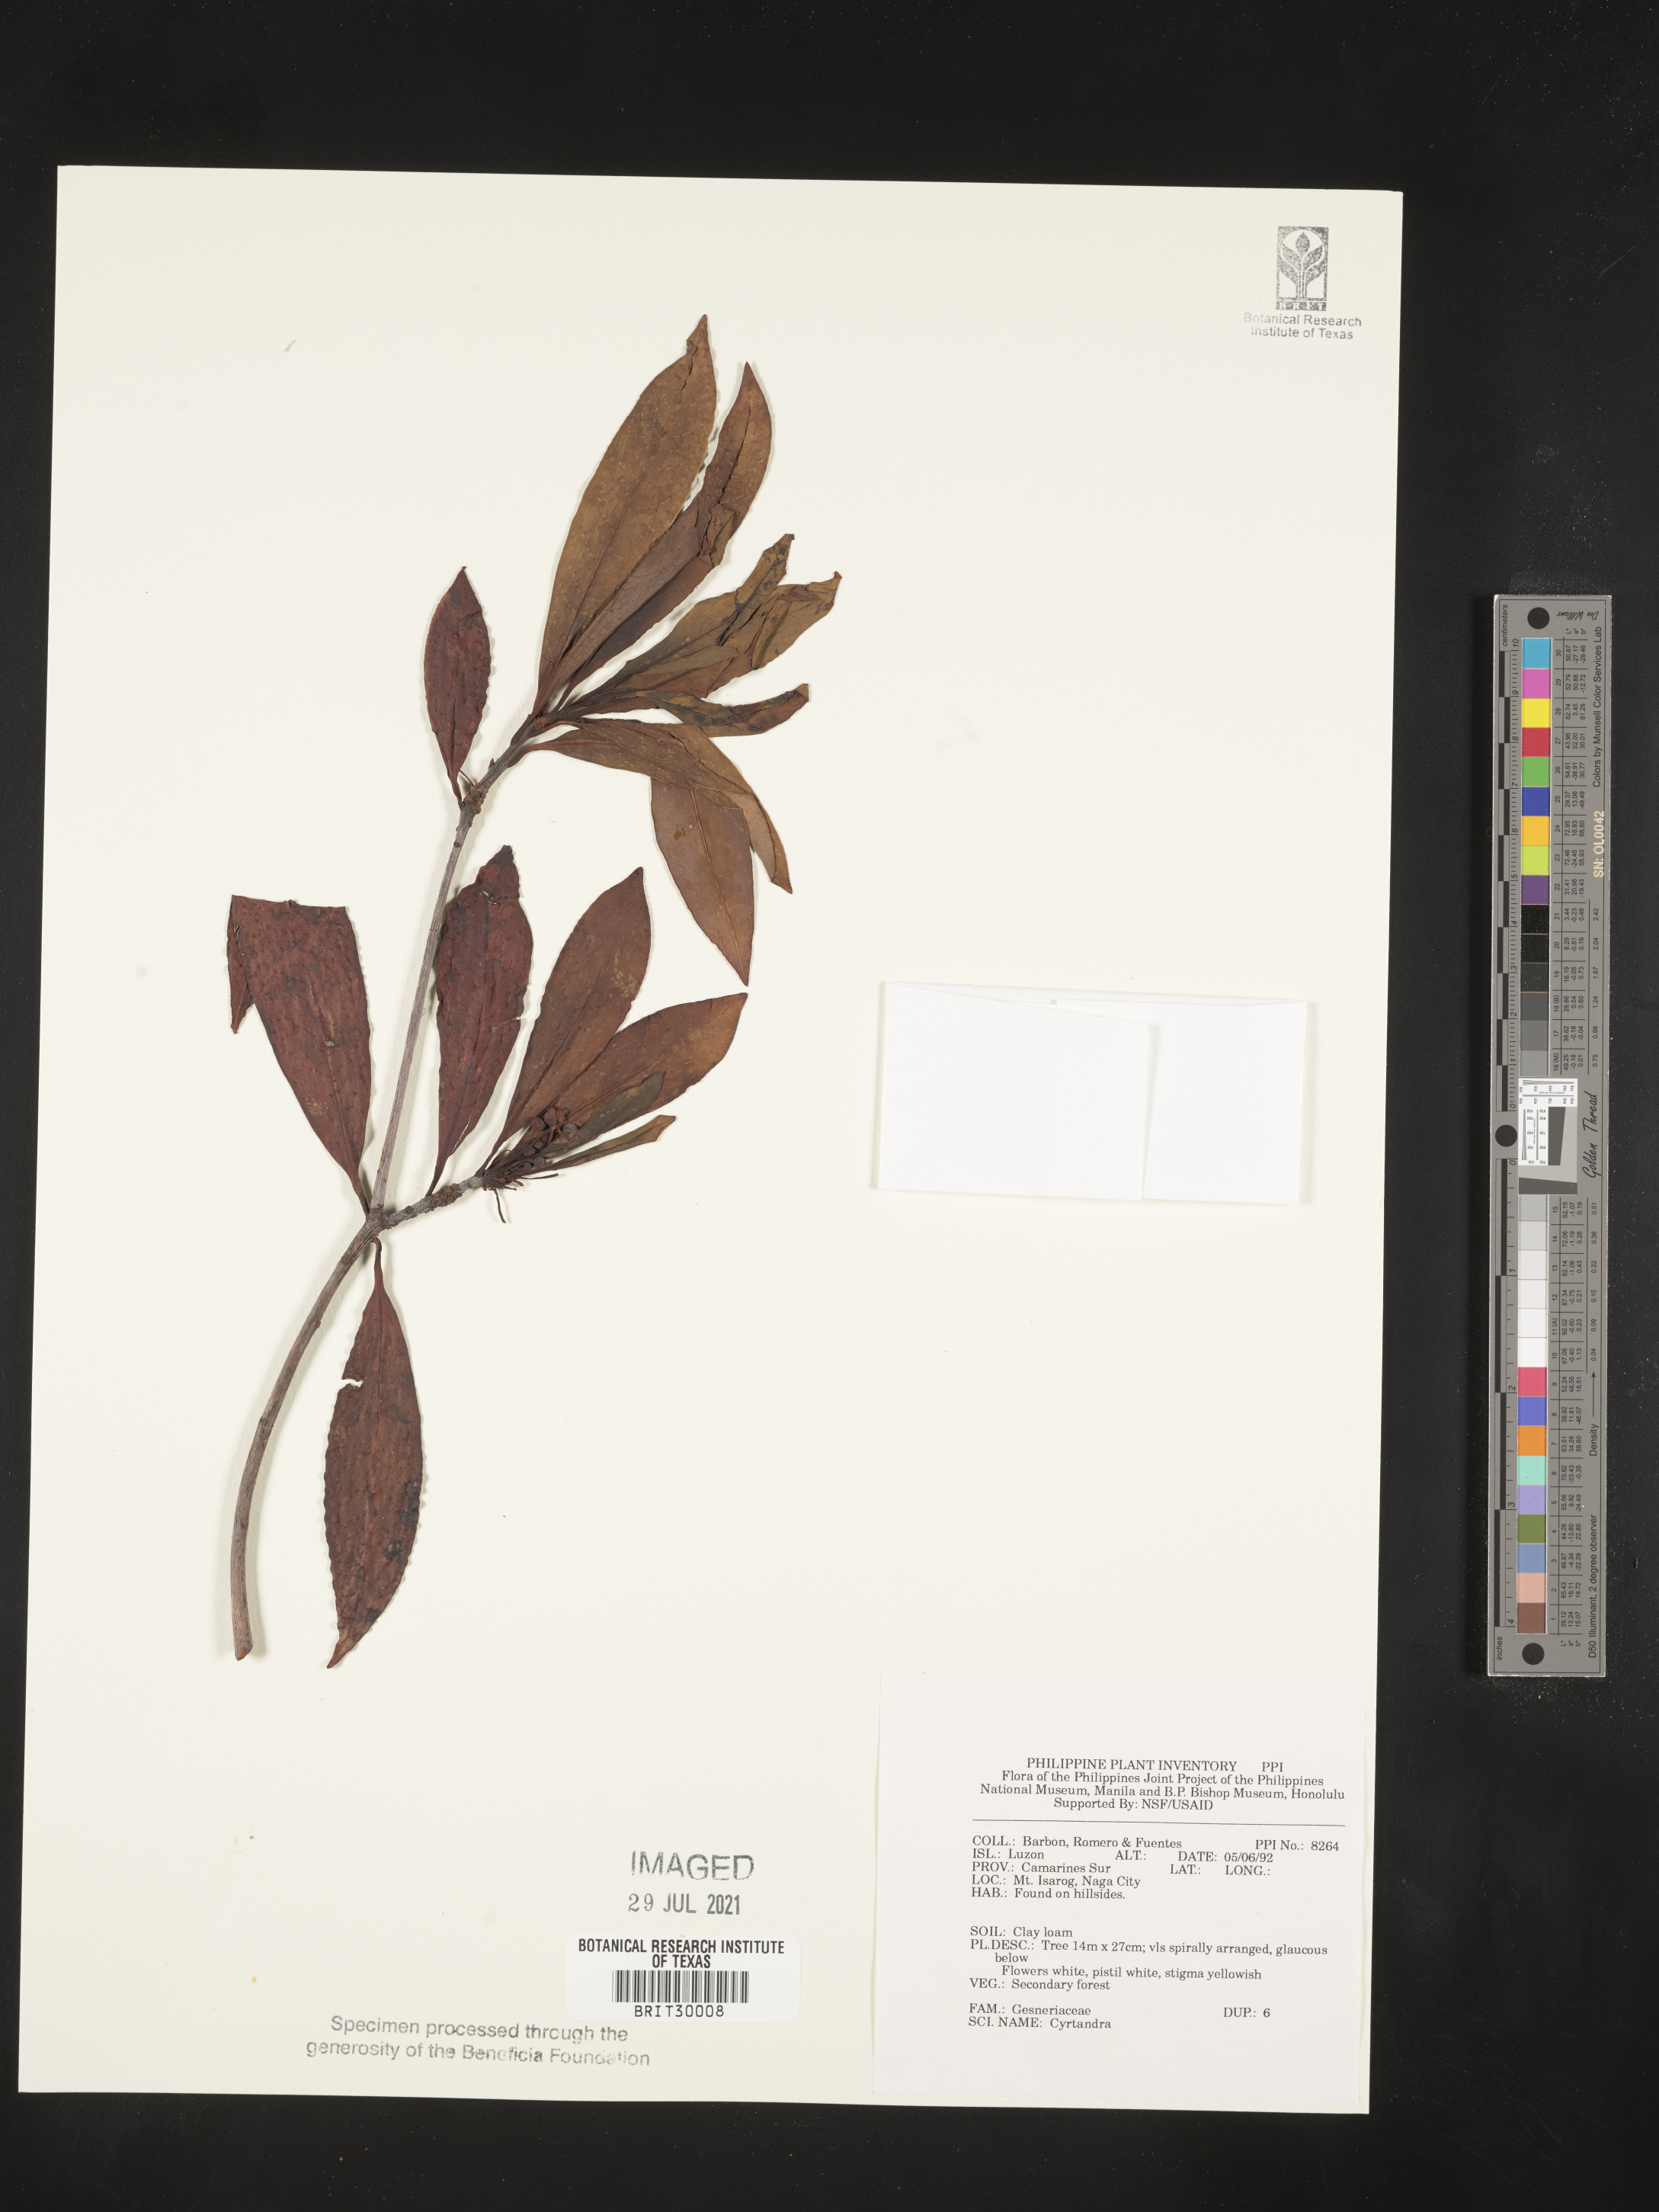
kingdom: Plantae
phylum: Tracheophyta
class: Magnoliopsida
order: Lamiales
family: Gesneriaceae
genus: Cyrtandra
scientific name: Cyrtandra
